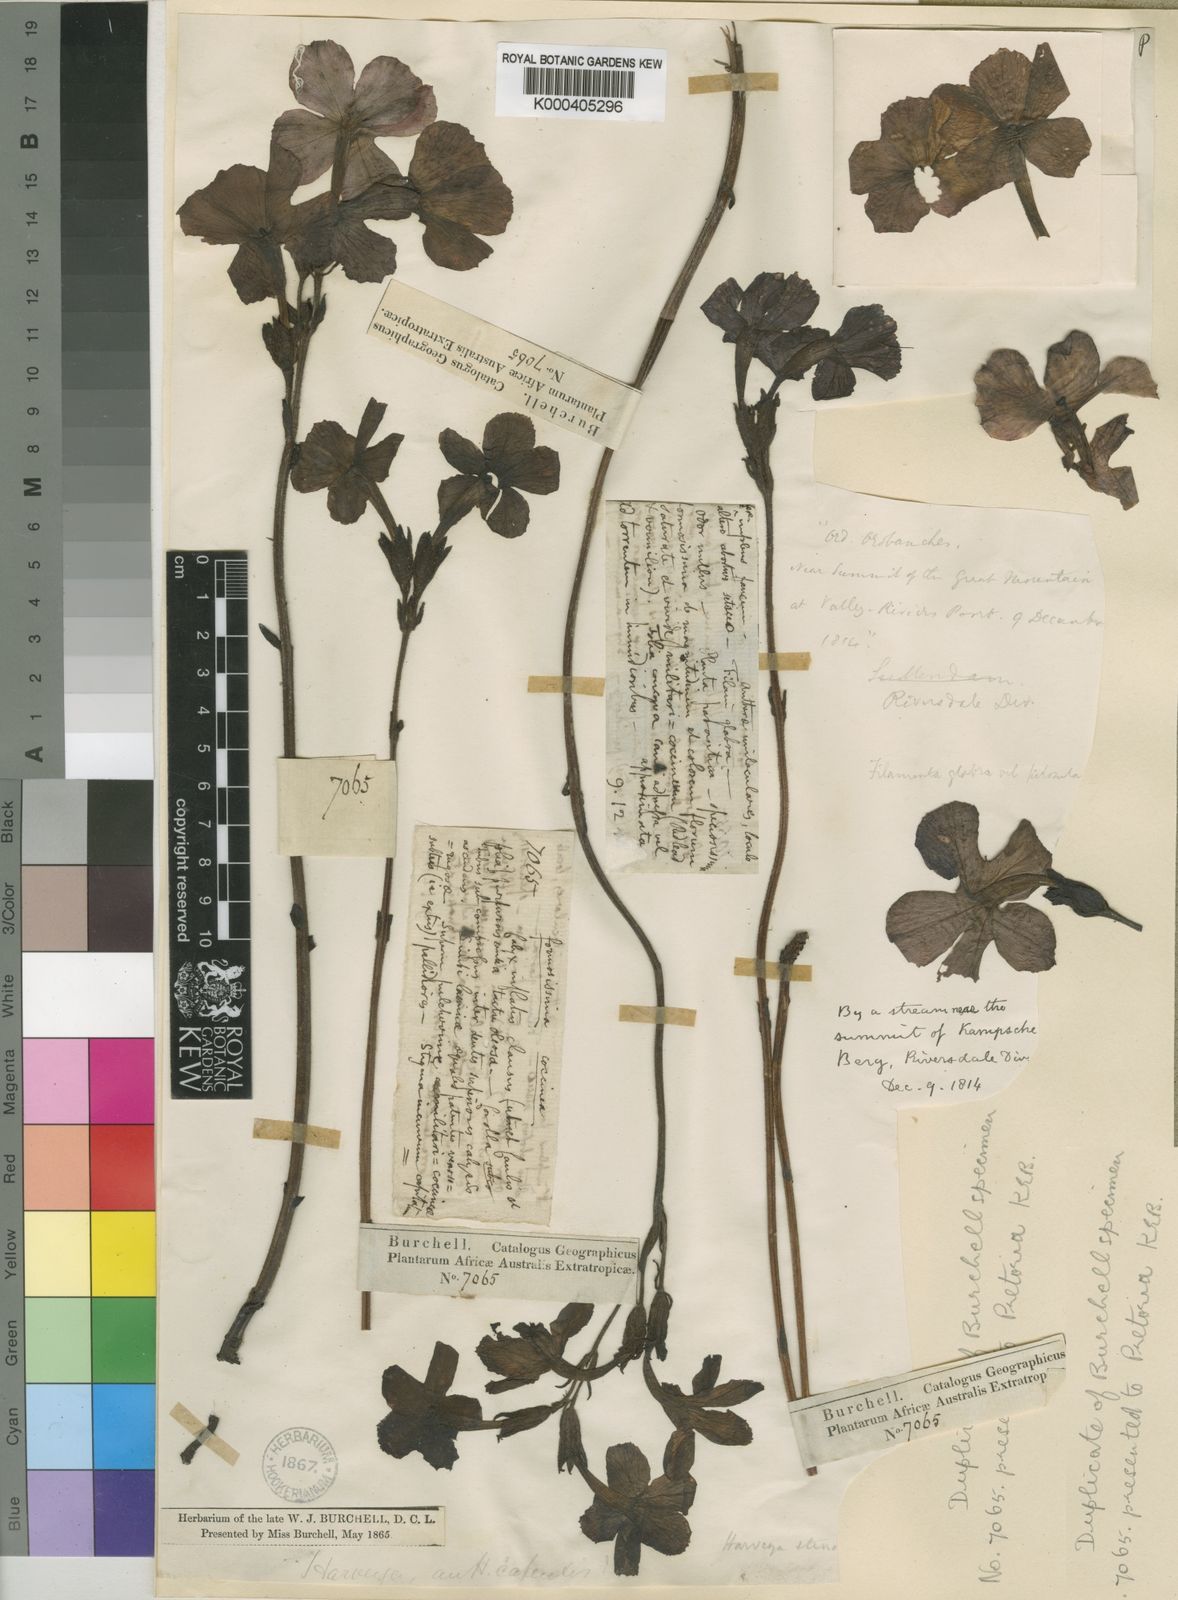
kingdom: Plantae
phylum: Tracheophyta
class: Magnoliopsida
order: Lamiales
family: Orobanchaceae
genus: Harveya
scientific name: Harveya stenosiphon
